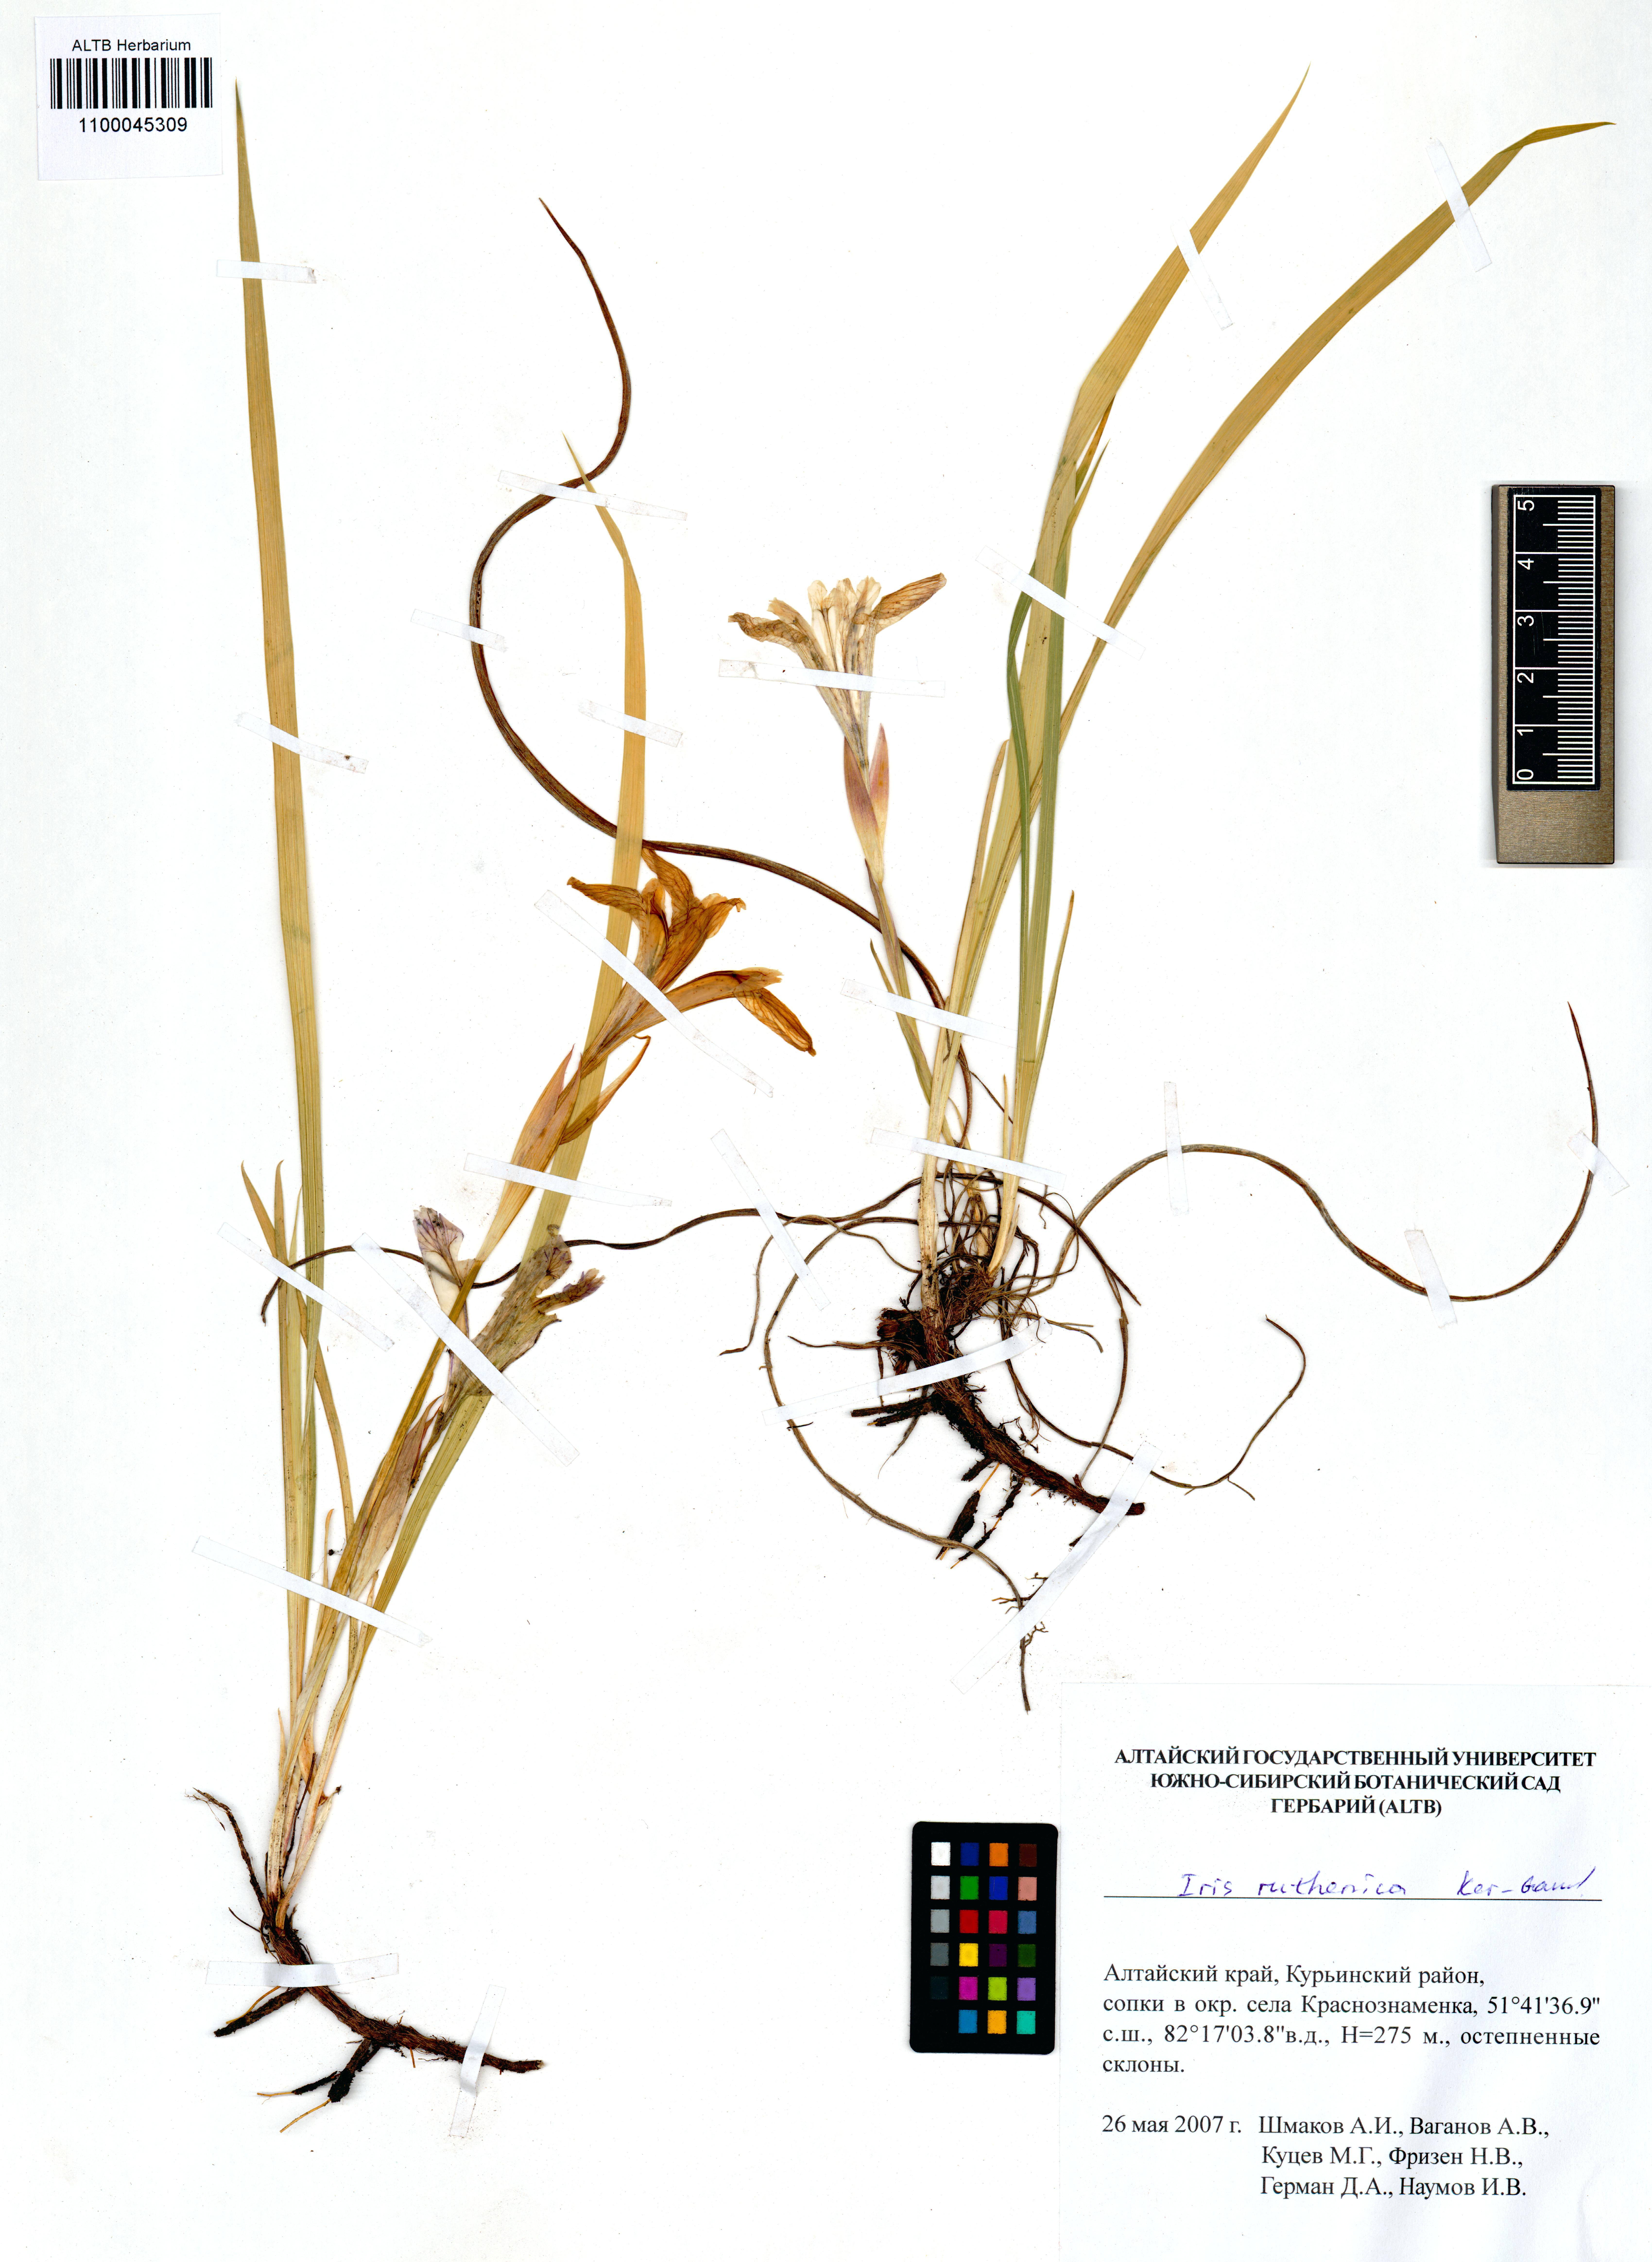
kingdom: Plantae
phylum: Tracheophyta
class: Liliopsida
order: Asparagales
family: Iridaceae
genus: Iris
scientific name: Iris ruthenica
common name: Purple-bract iris
